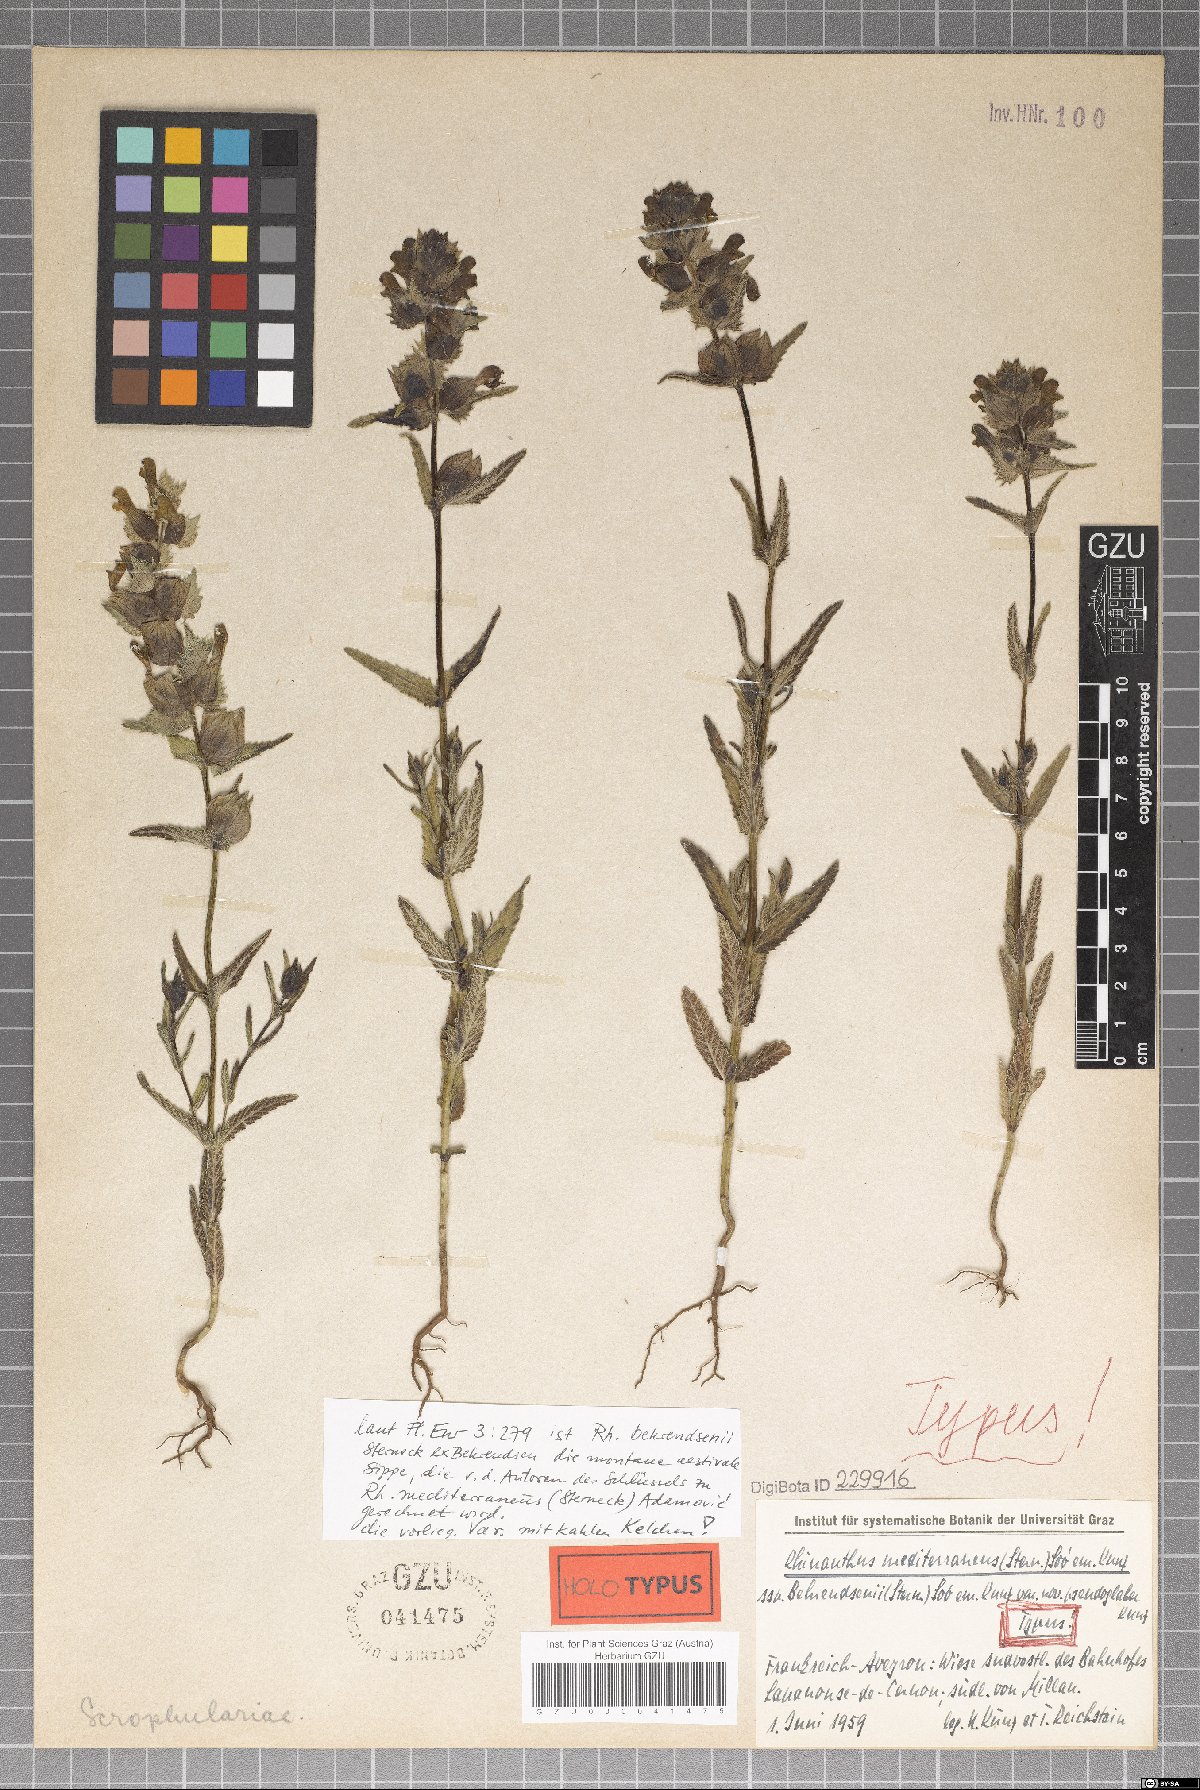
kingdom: Plantae
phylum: Tracheophyta
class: Magnoliopsida
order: Lamiales
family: Orobanchaceae
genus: Rhinanthus
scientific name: Rhinanthus pumilus
